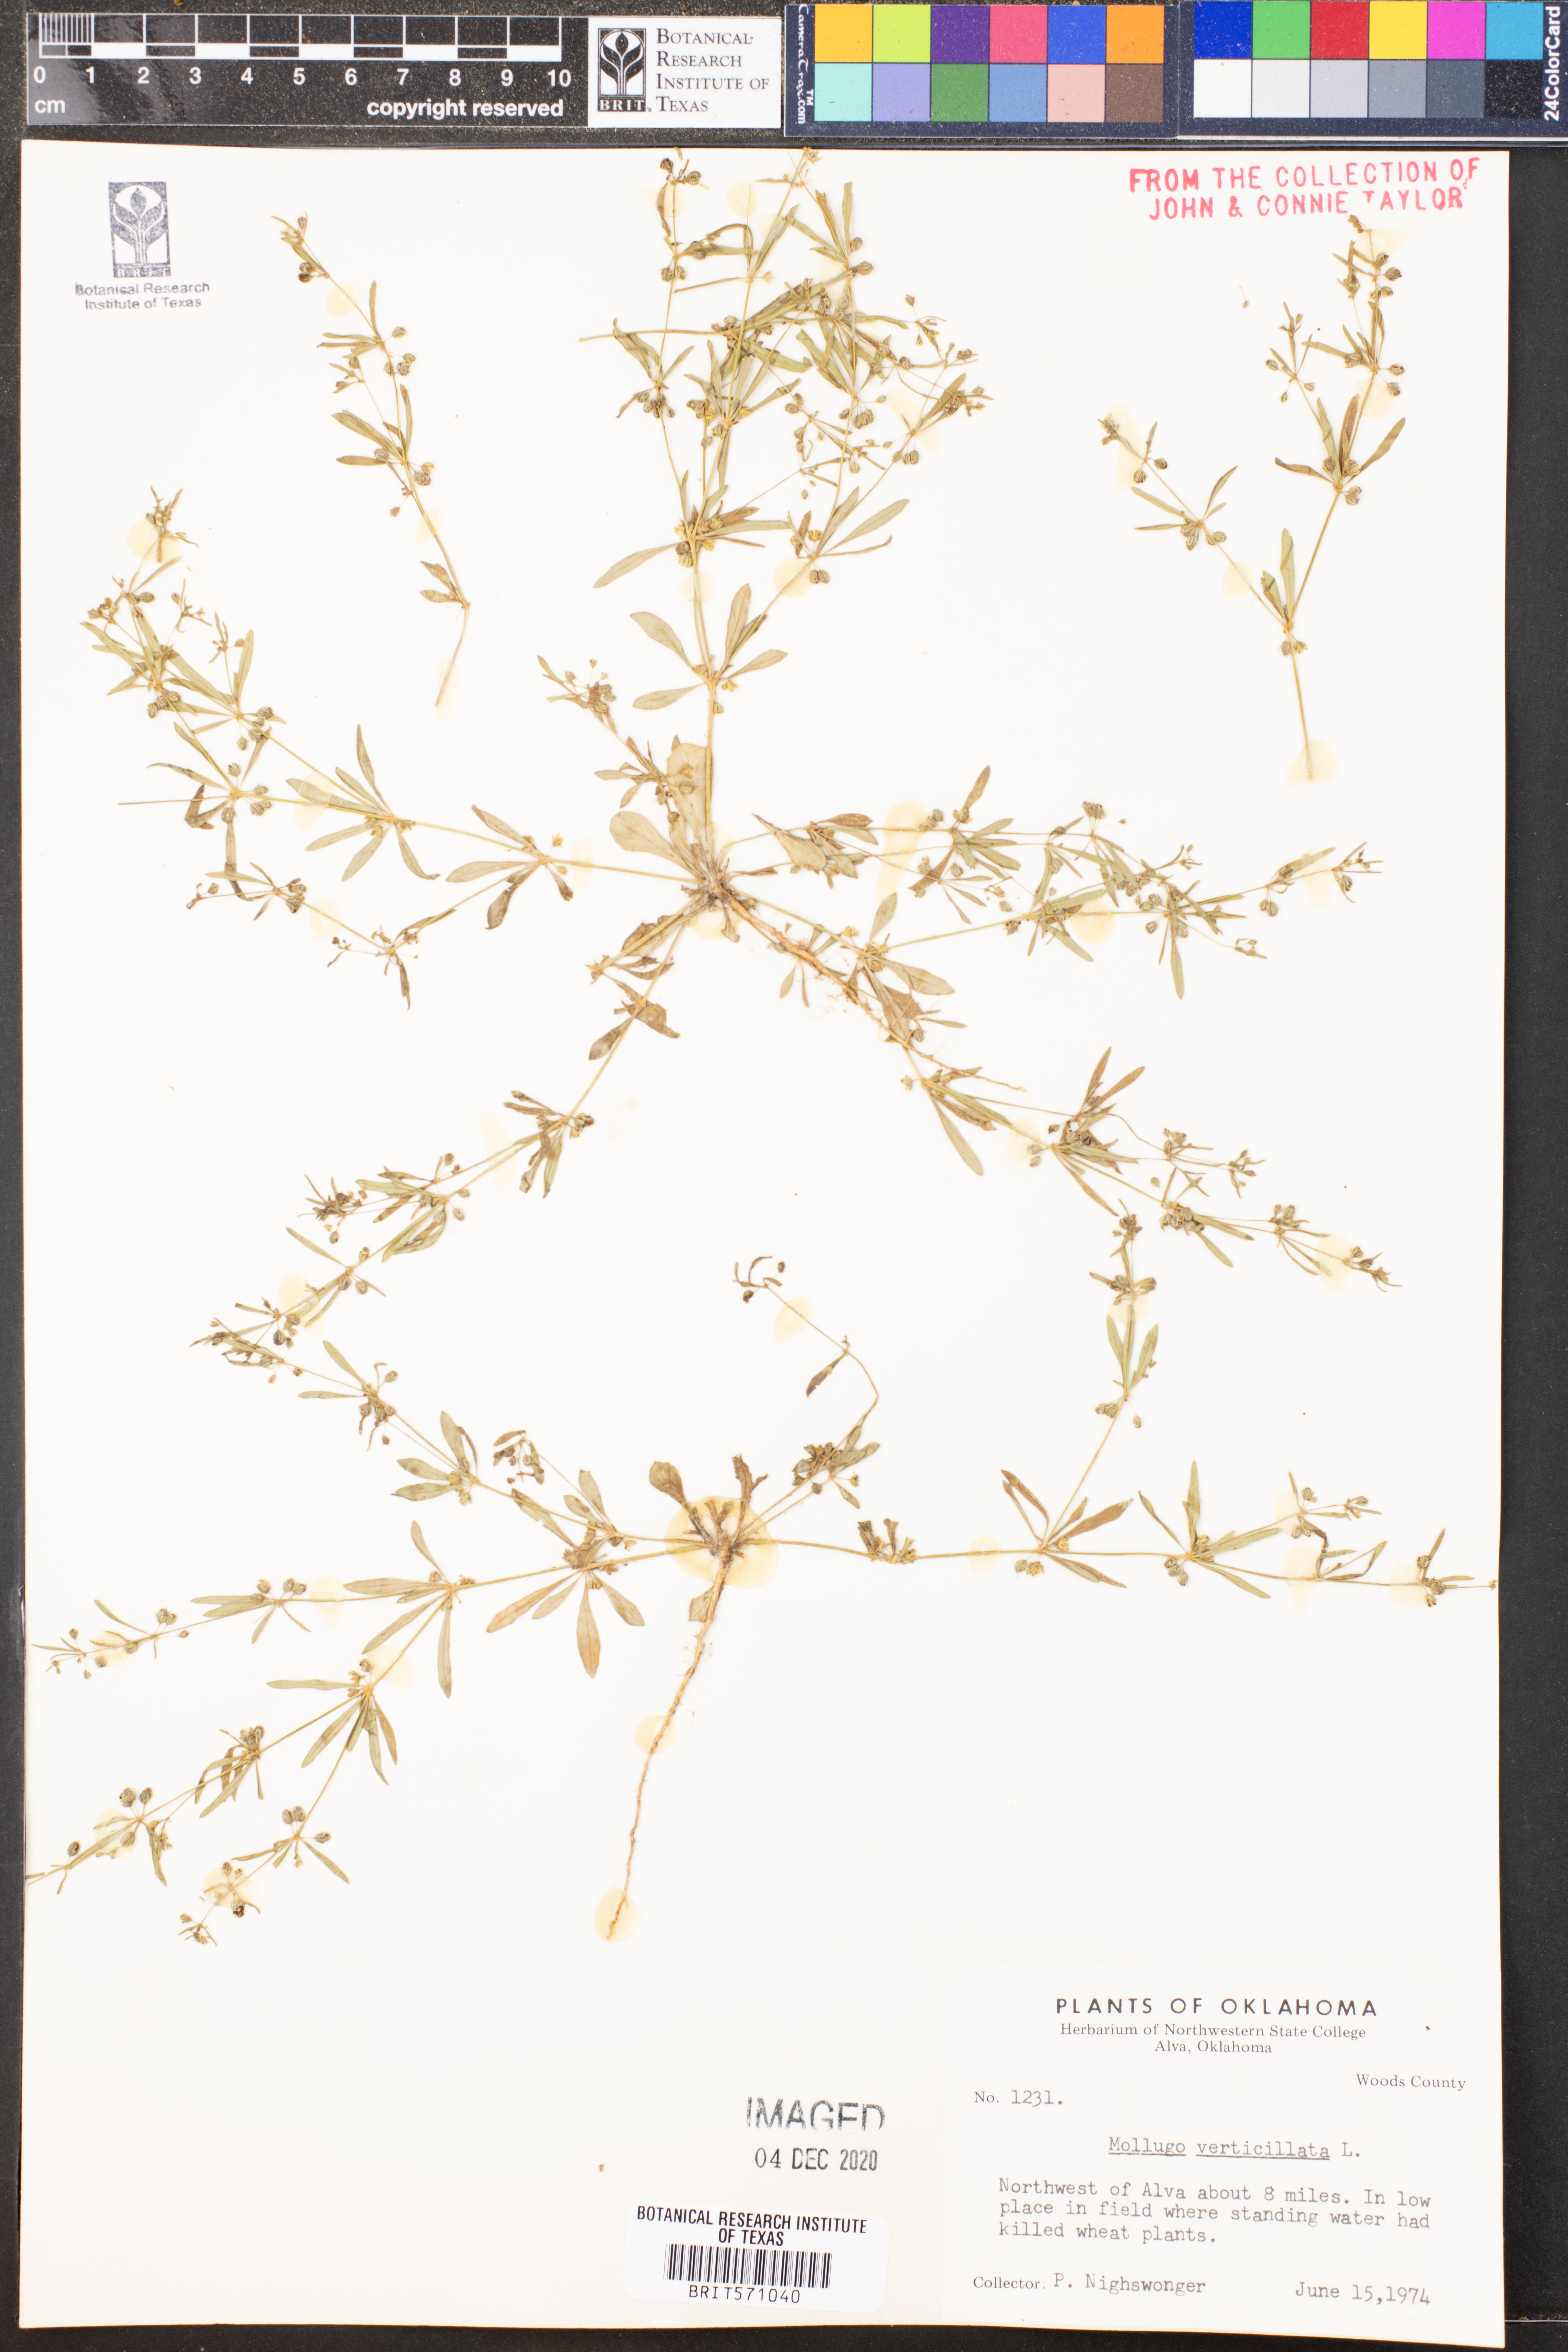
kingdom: Plantae
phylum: Tracheophyta
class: Magnoliopsida
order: Caryophyllales
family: Molluginaceae
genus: Mollugo
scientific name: Mollugo verticillata
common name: Green carpetweed
